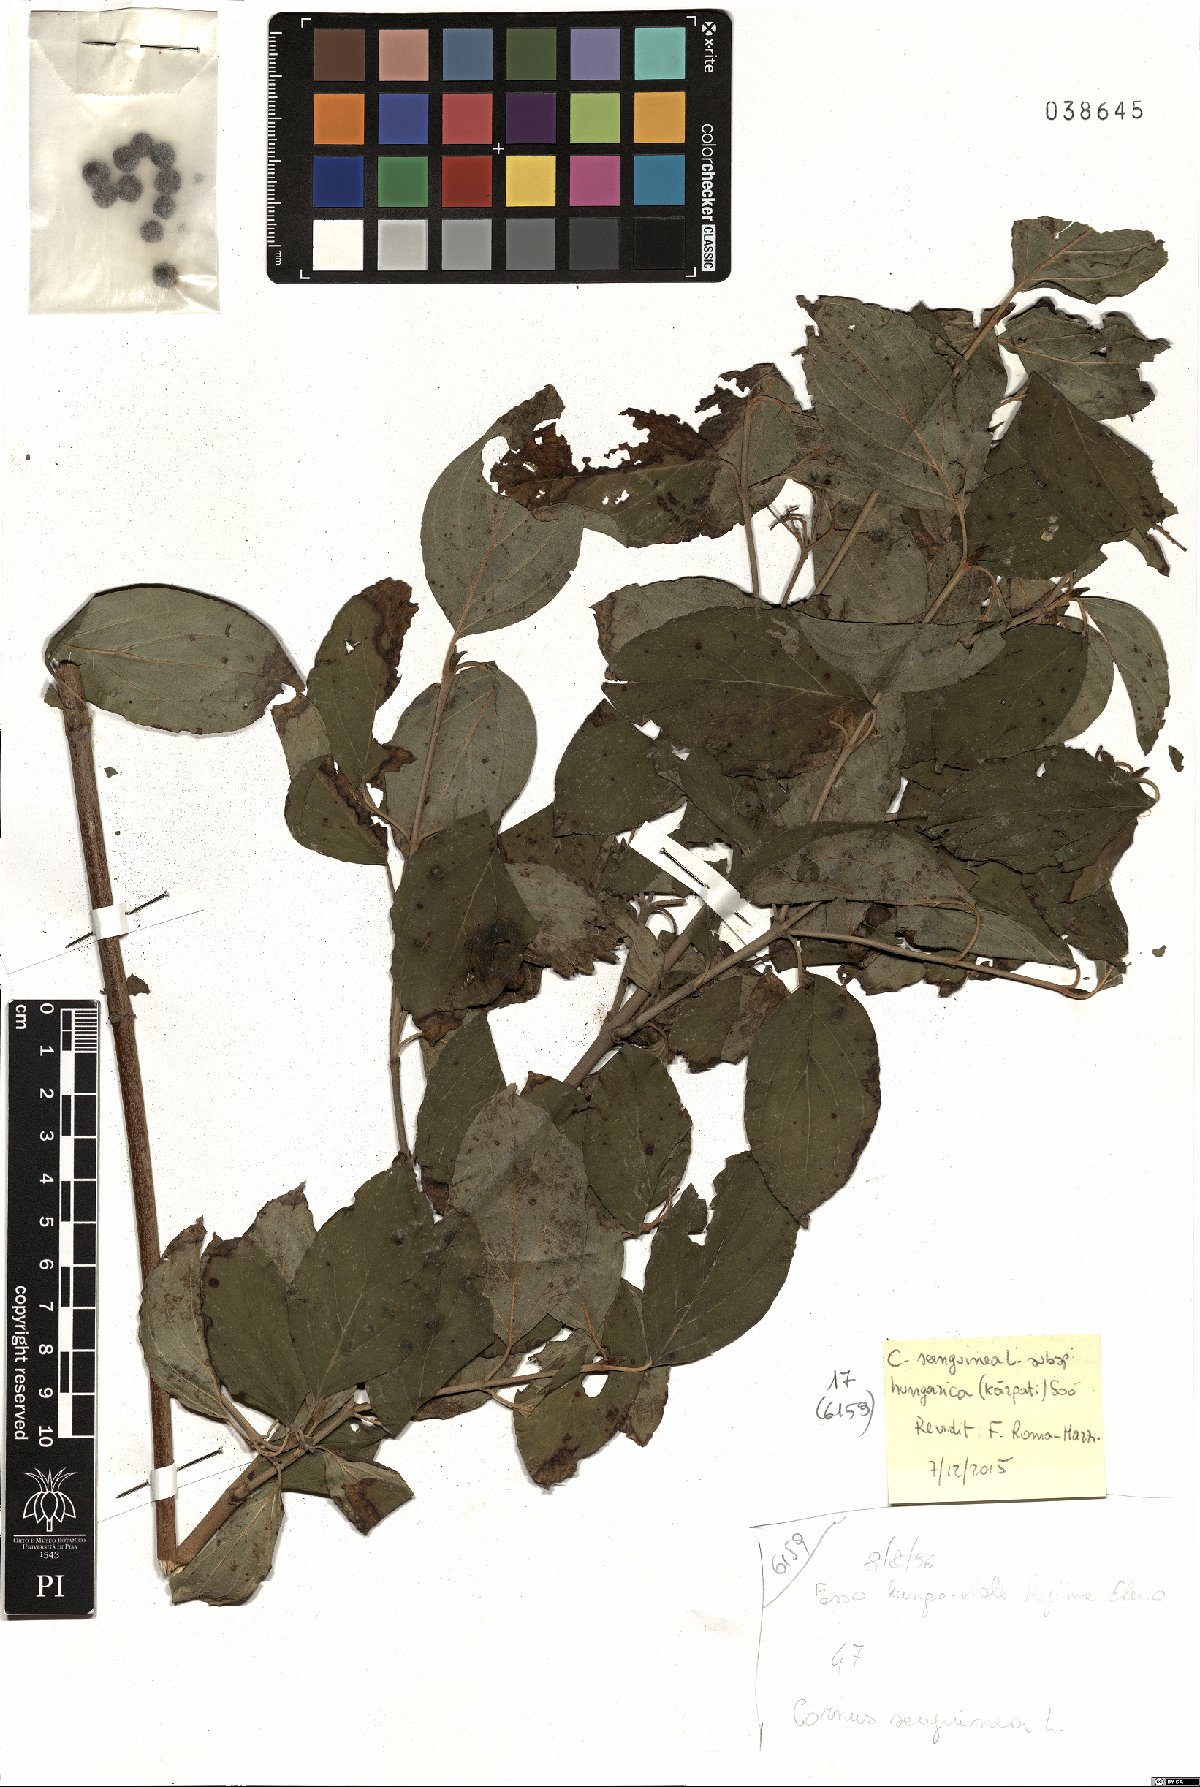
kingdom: Plantae
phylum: Tracheophyta
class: Magnoliopsida
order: Cornales
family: Cornaceae
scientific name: Cornaceae
